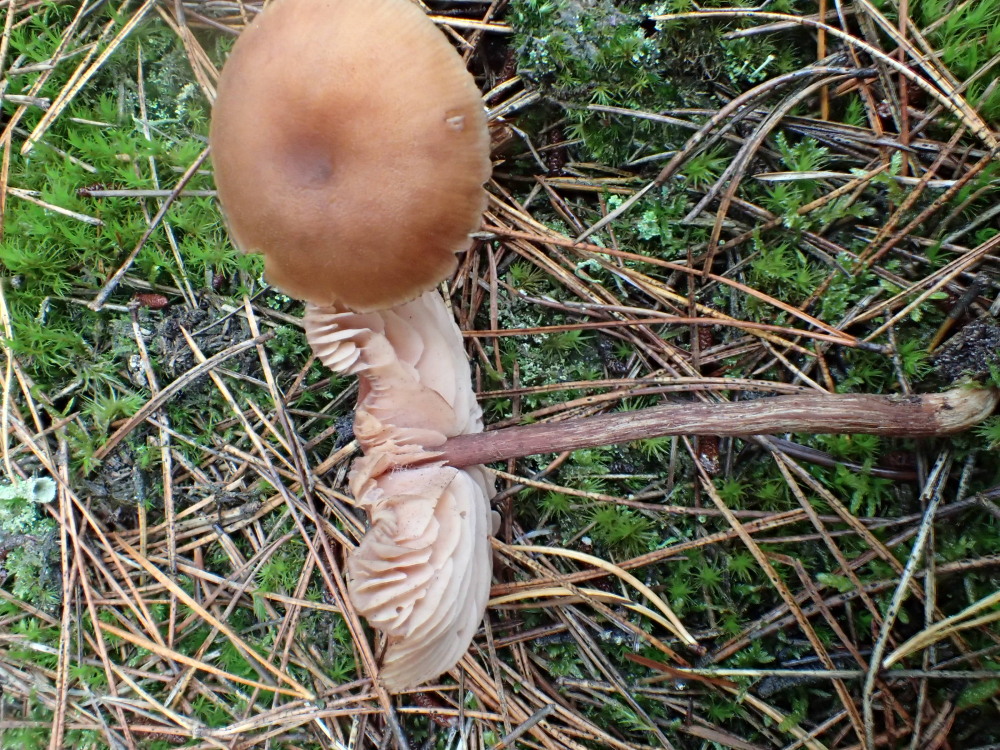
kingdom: Fungi
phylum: Basidiomycota
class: Agaricomycetes
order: Agaricales
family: Hydnangiaceae
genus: Laccaria
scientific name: Laccaria proxima
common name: stor ametysthat
